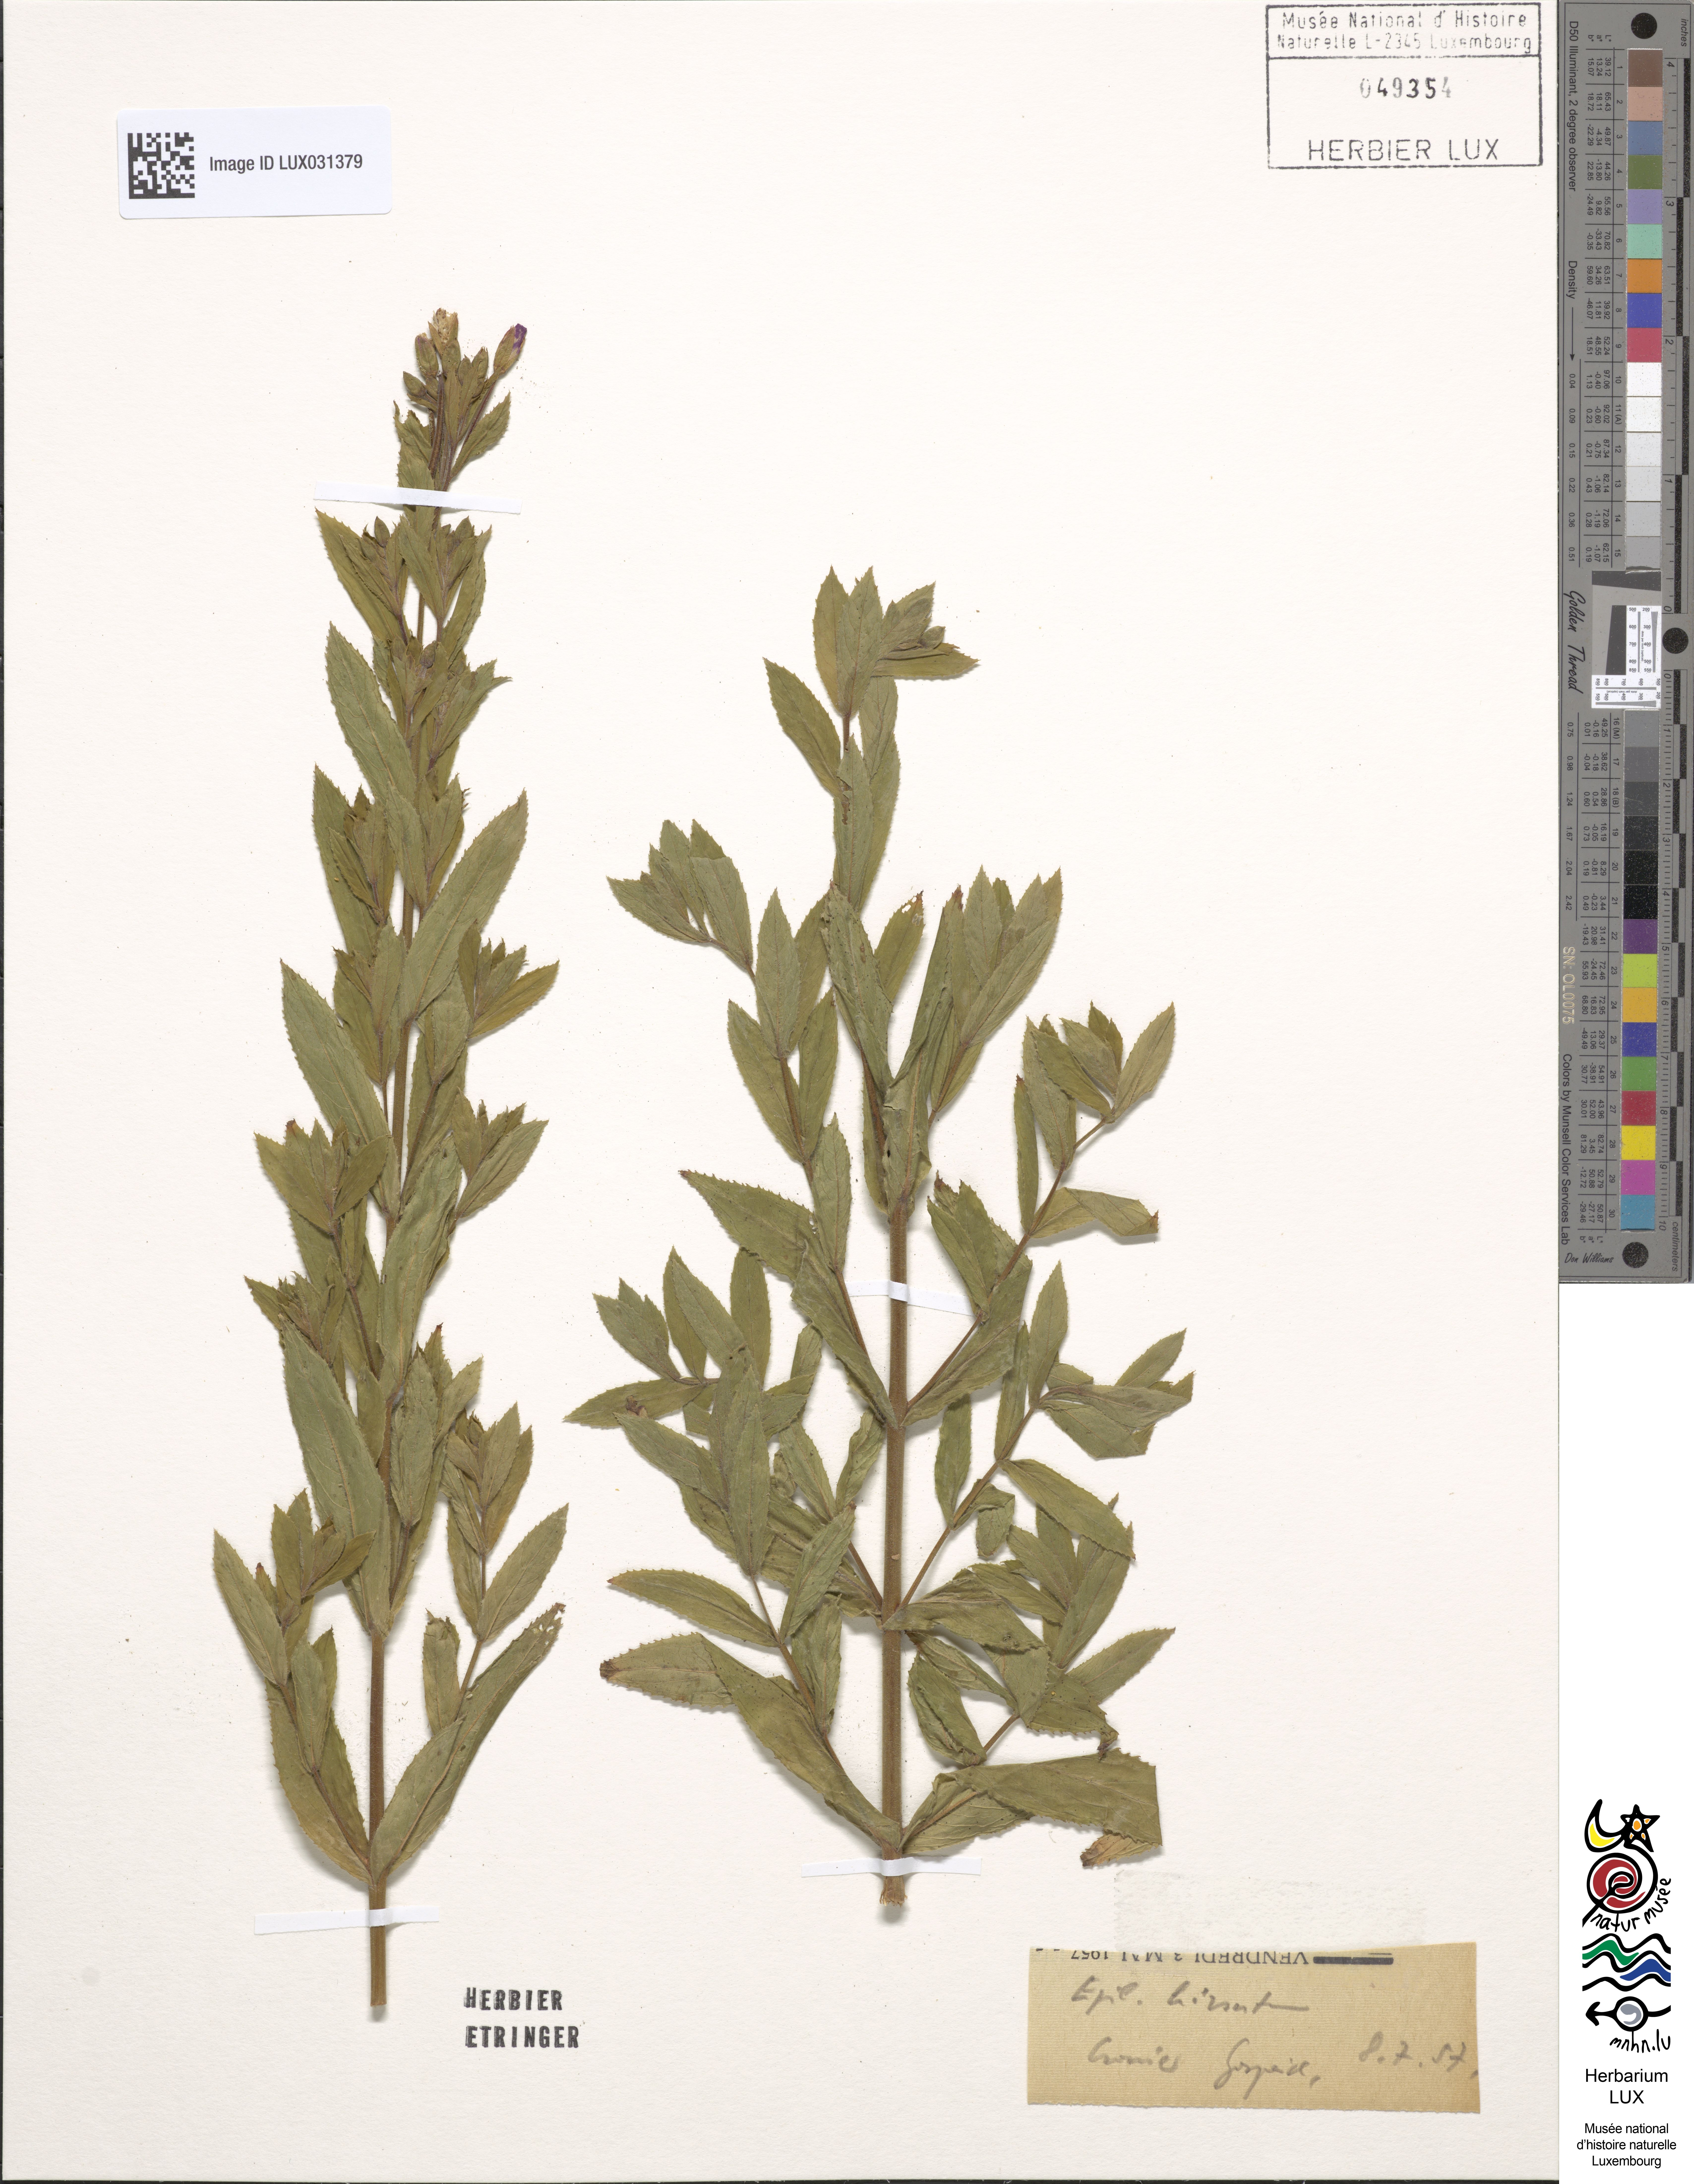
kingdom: Plantae
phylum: Tracheophyta
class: Magnoliopsida
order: Myrtales
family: Onagraceae
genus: Epilobium
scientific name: Epilobium hirsutum
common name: Great willowherb
